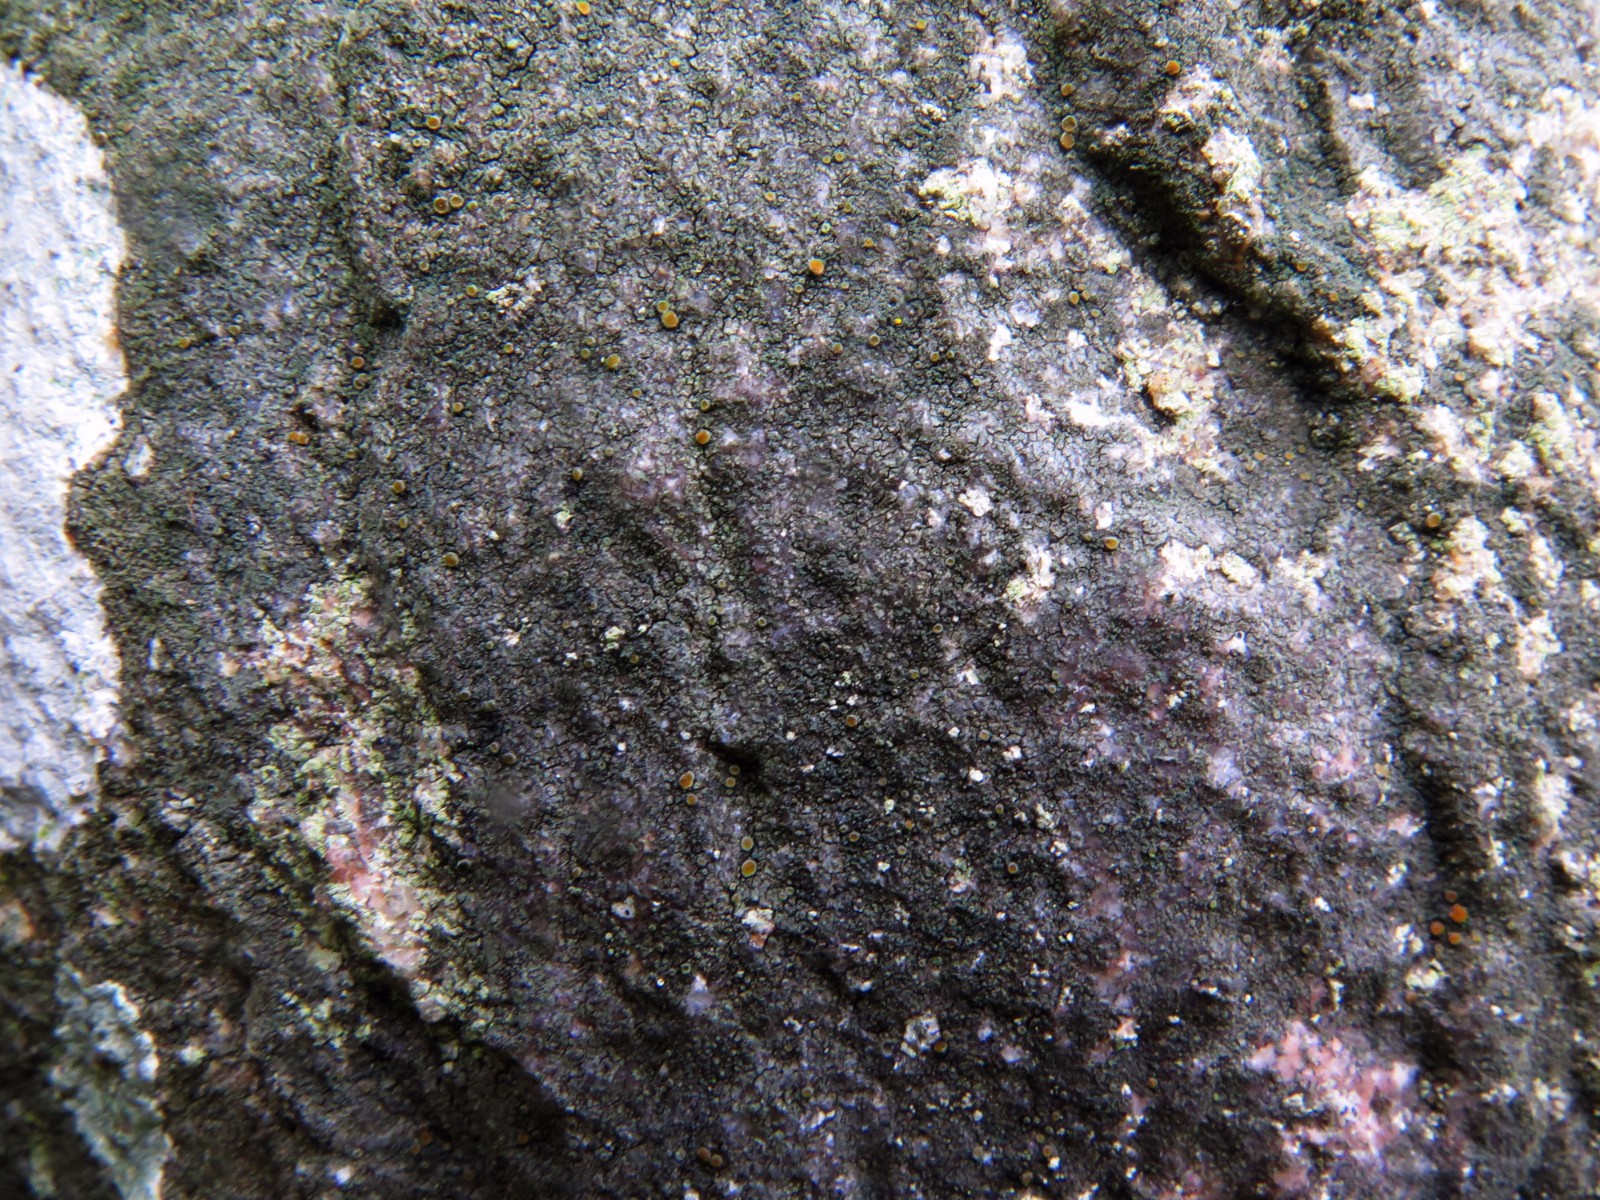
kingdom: Fungi
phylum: Ascomycota
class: Candelariomycetes
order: Candelariales
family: Candelariaceae
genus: Candelariella
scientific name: Candelariella aurella
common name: liden æggeblommelav
